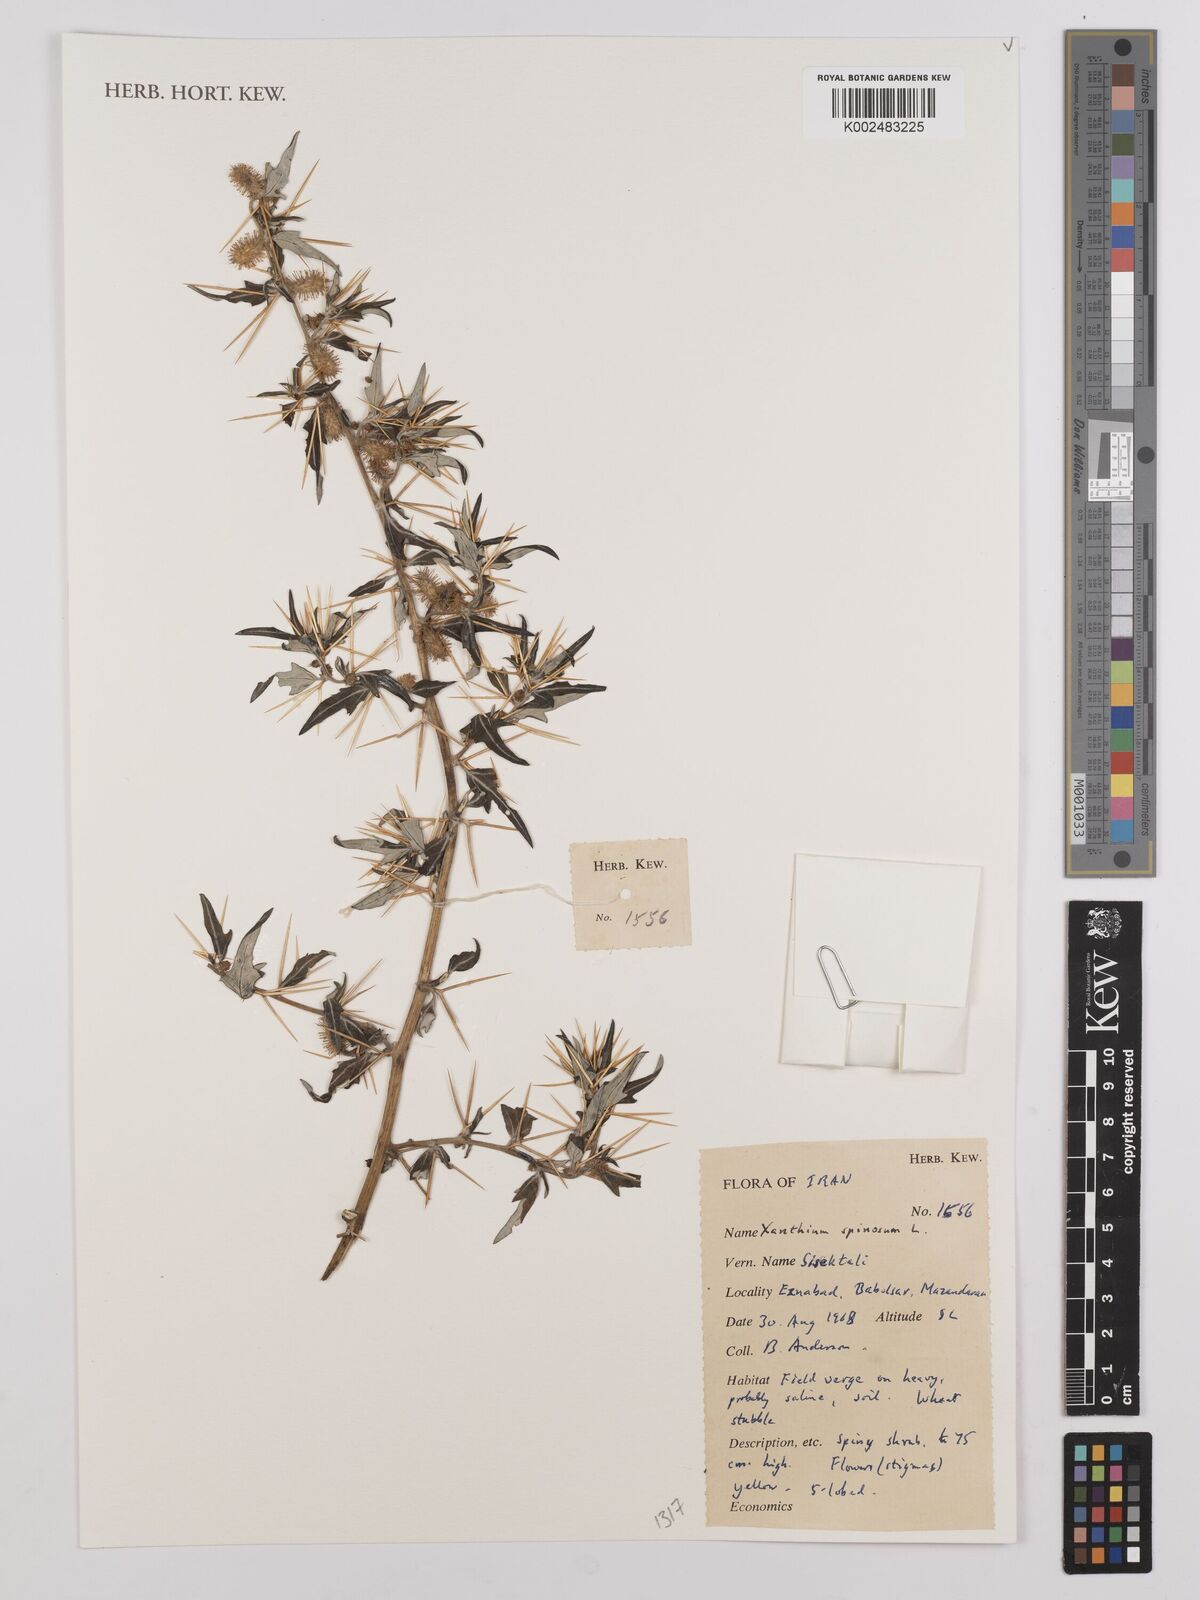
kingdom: Plantae
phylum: Tracheophyta
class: Magnoliopsida
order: Asterales
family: Asteraceae
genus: Xanthium
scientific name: Xanthium spinosum
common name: Spiny cocklebur
